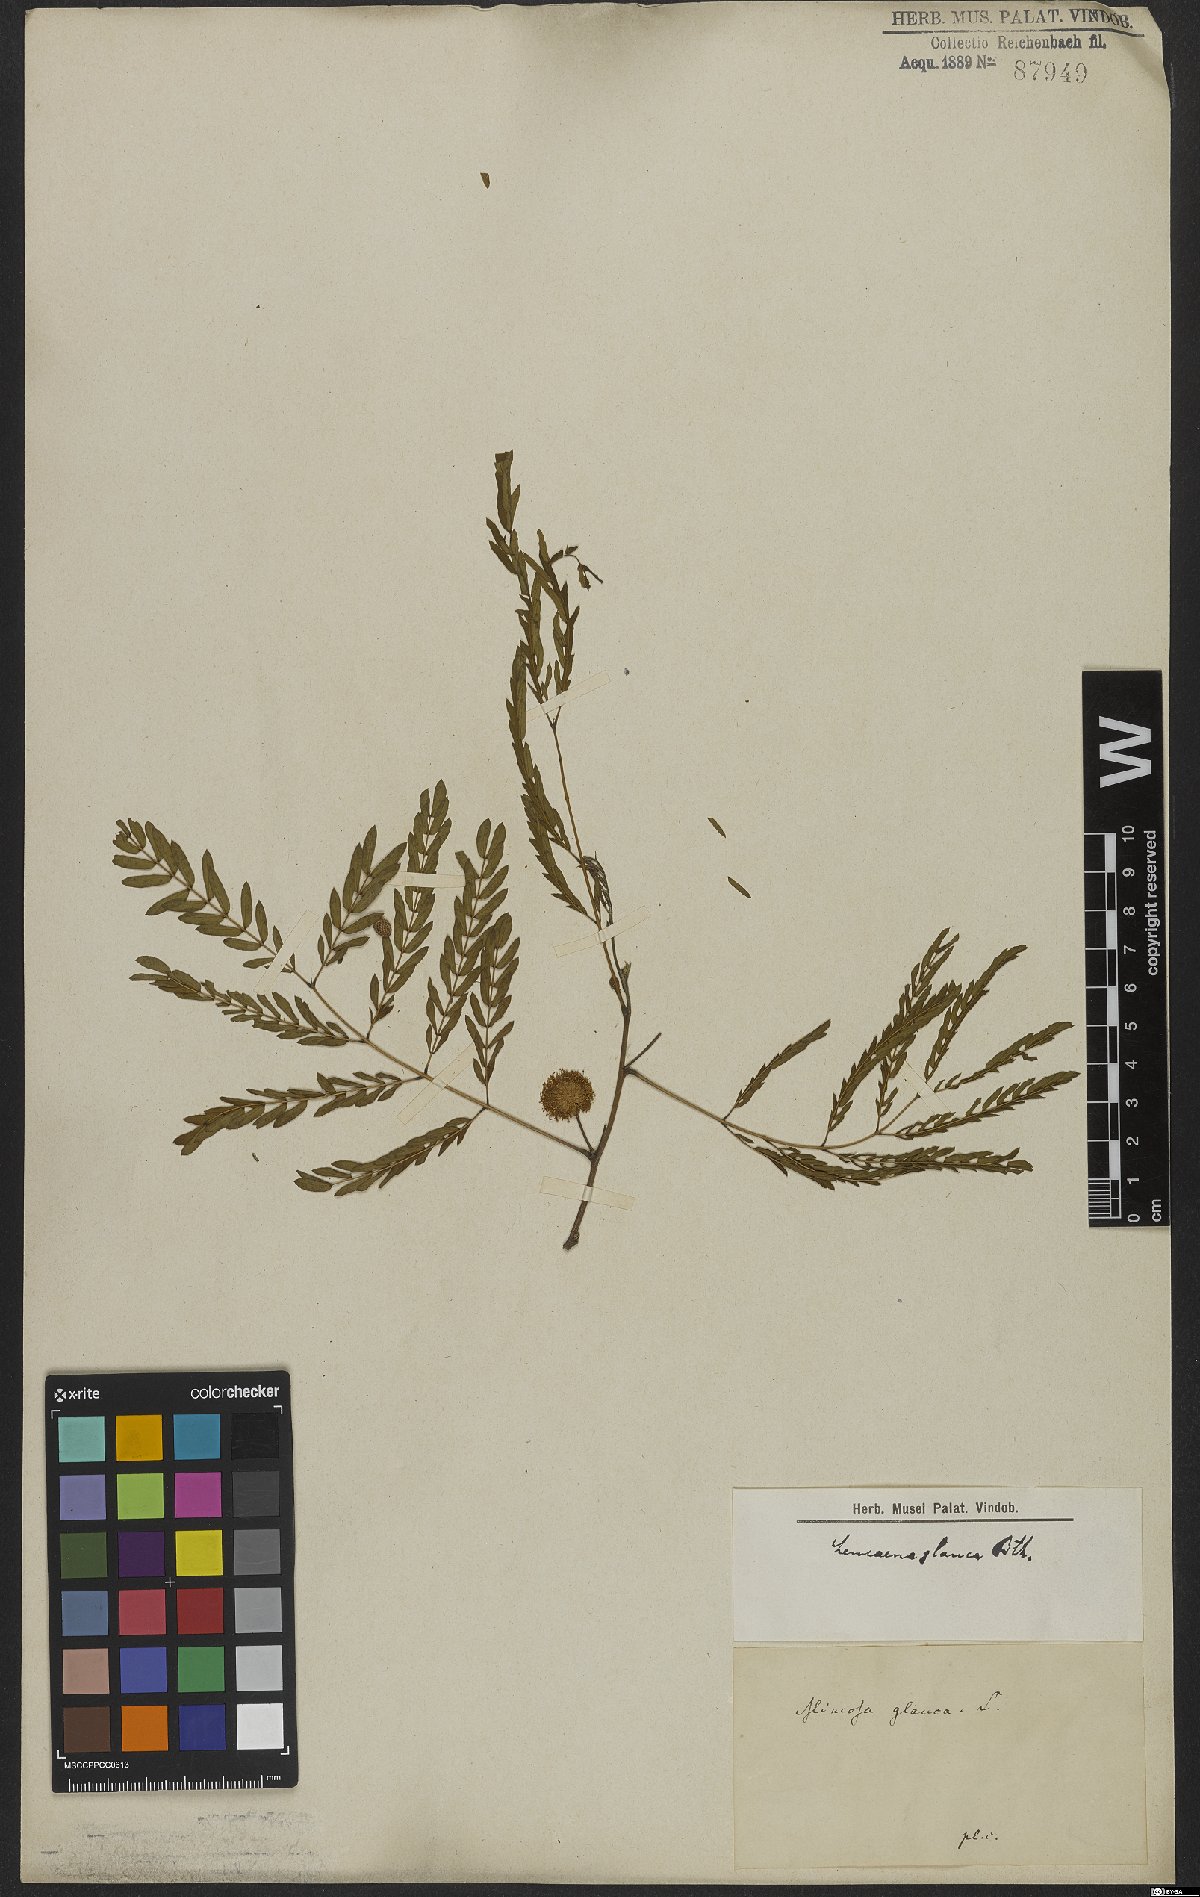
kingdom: Plantae
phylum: Tracheophyta
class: Magnoliopsida
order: Fabales
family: Fabaceae
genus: Acaciella
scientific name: Acaciella glauca
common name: Redwood
